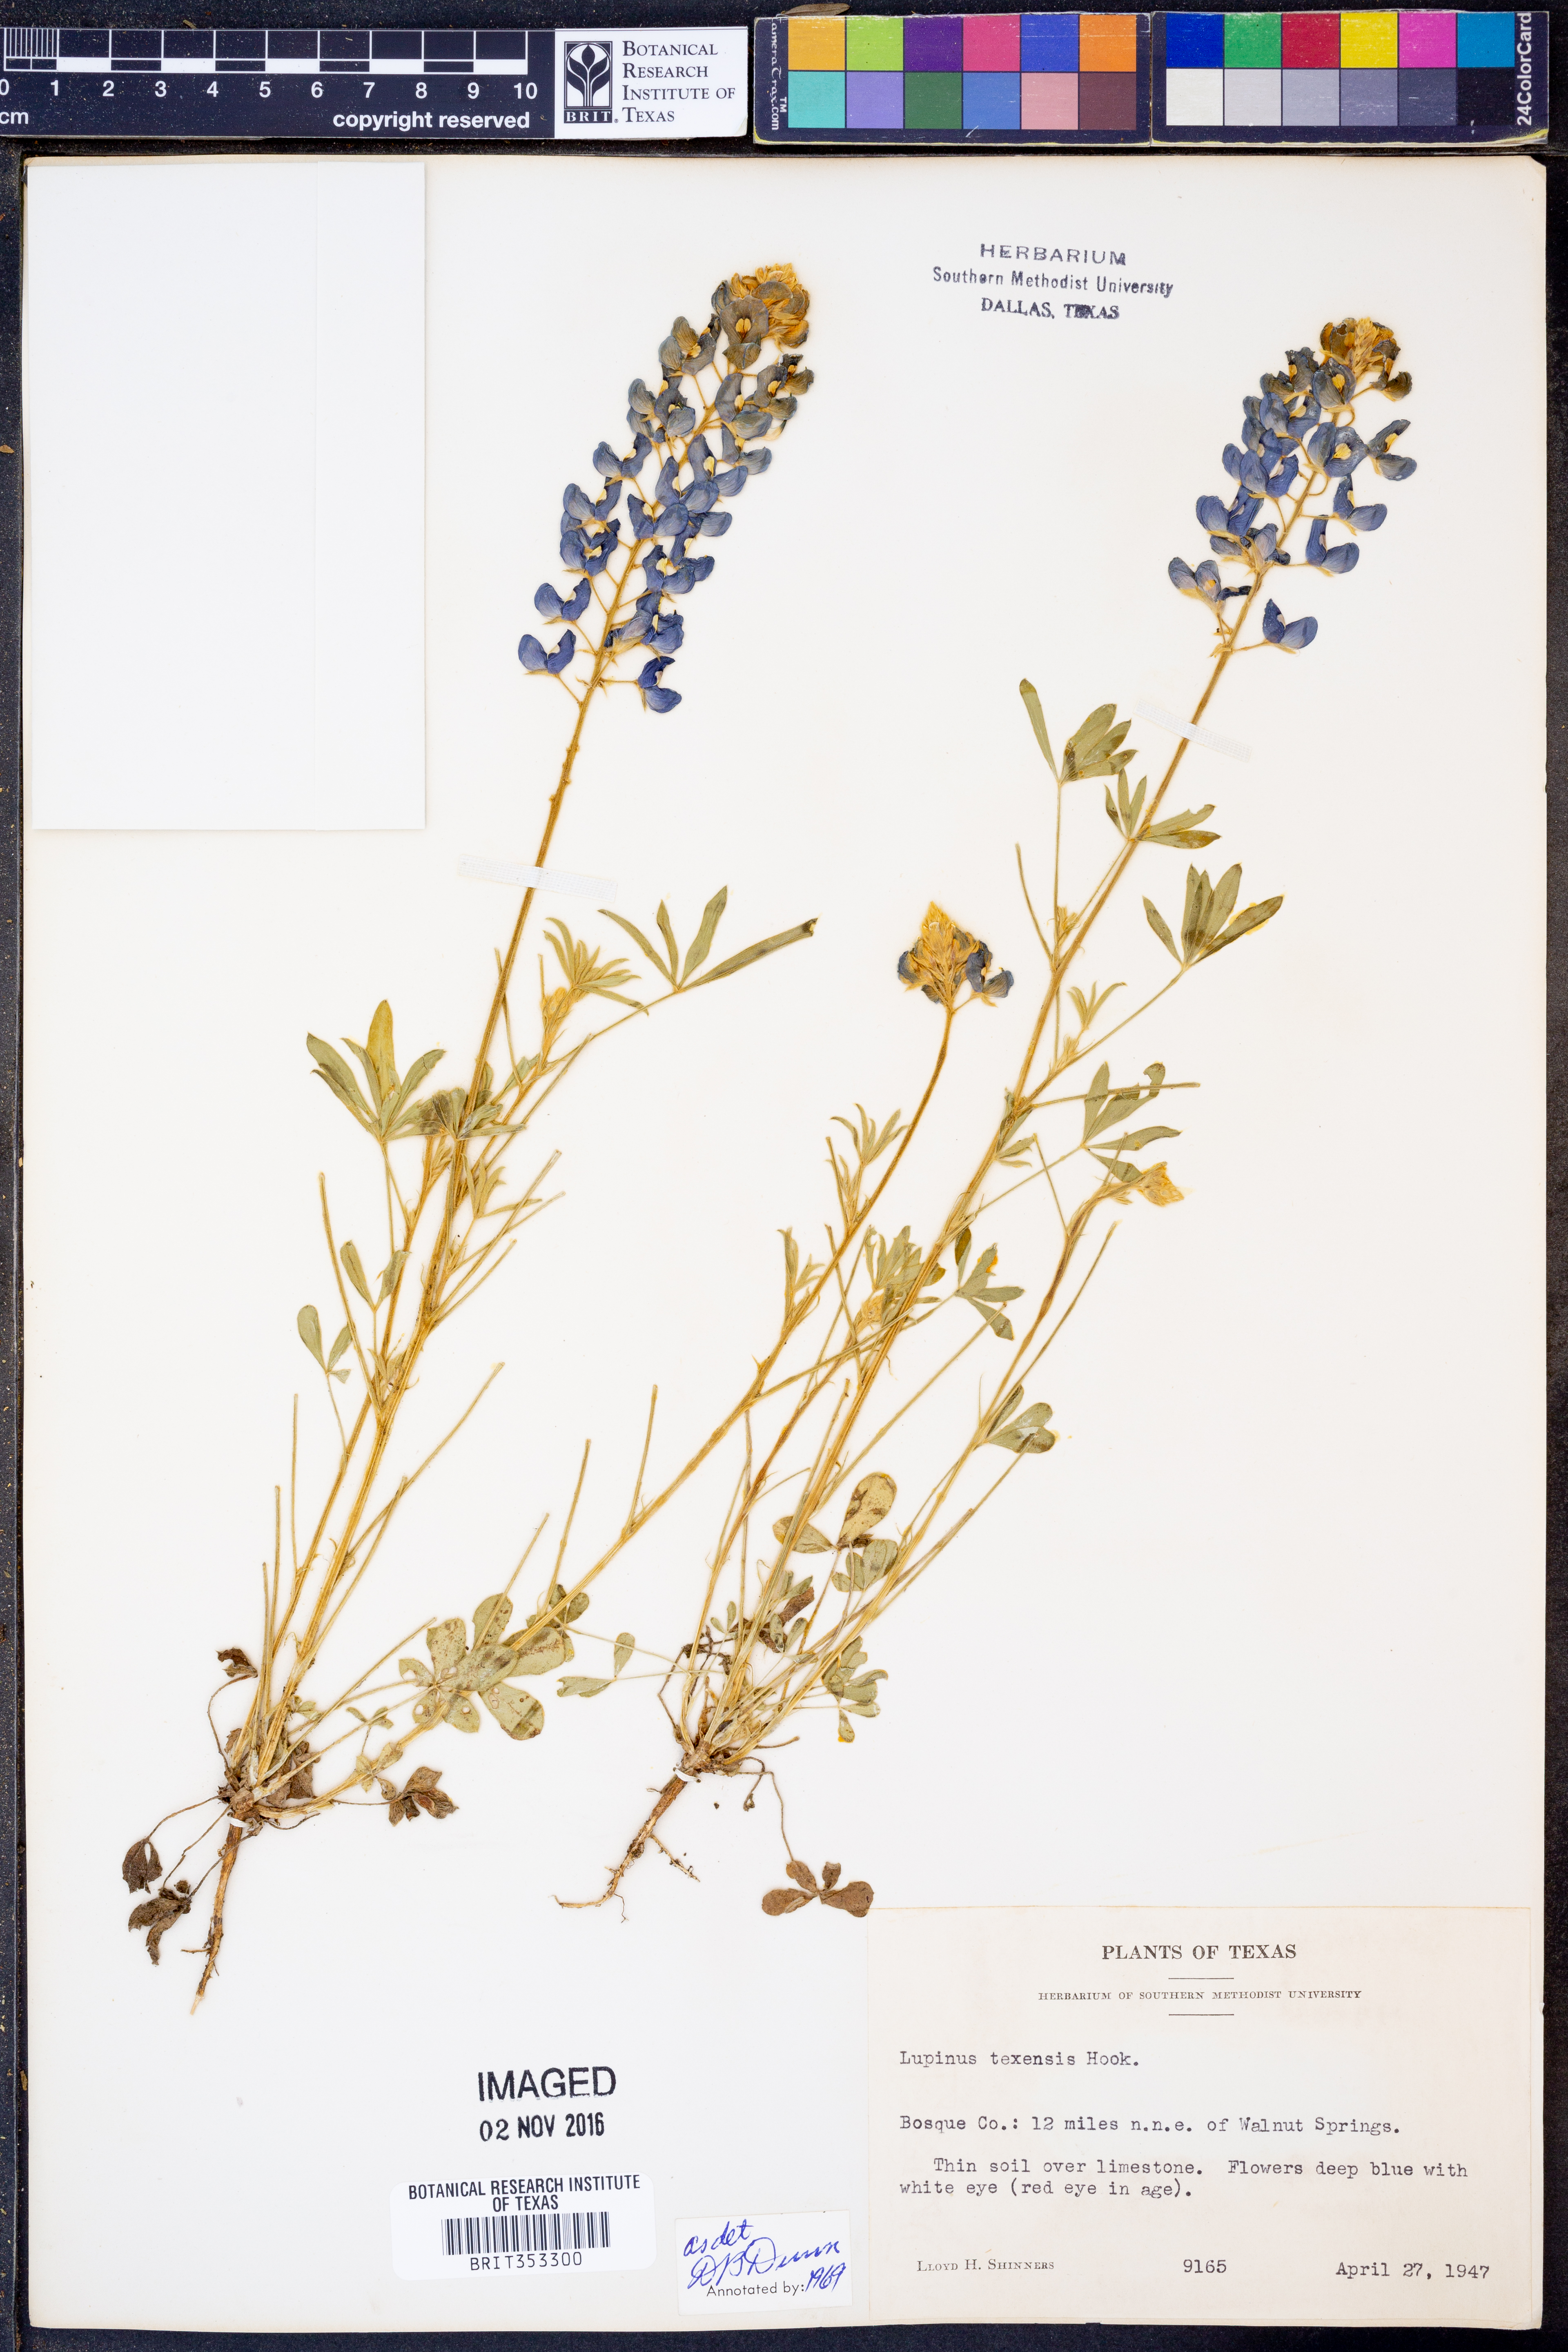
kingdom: Plantae
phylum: Tracheophyta
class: Magnoliopsida
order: Fabales
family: Fabaceae
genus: Lupinus
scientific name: Lupinus texensis
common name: Texas bluebonnet
